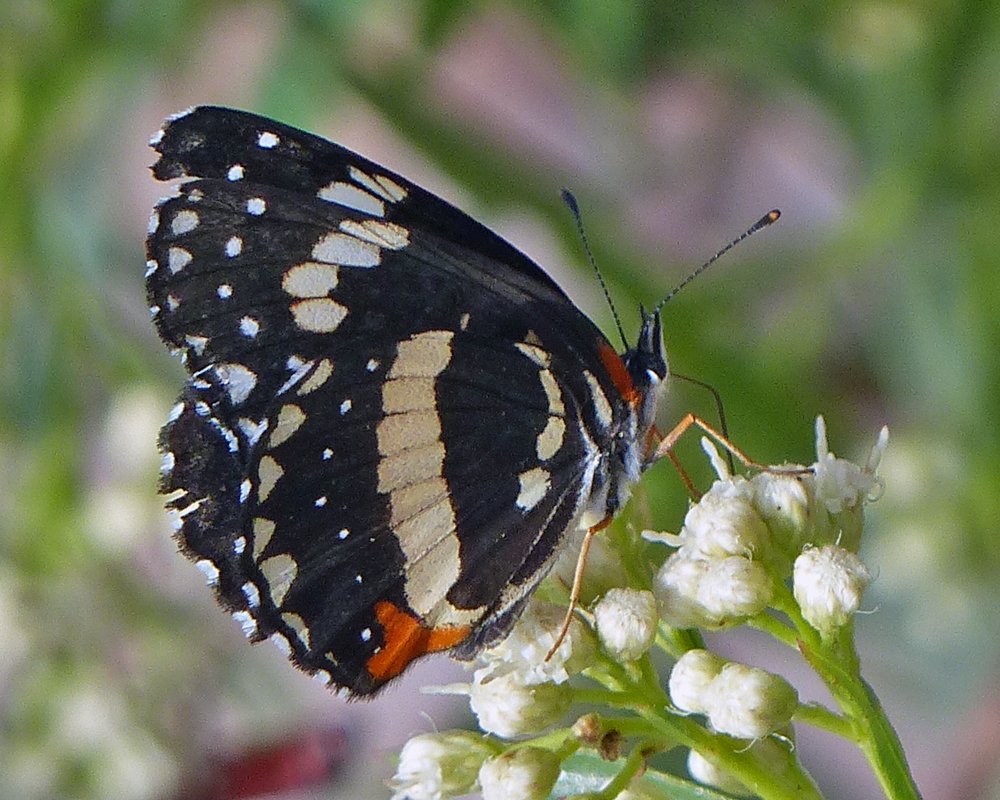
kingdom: Animalia
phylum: Arthropoda
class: Insecta
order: Lepidoptera
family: Nymphalidae
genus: Chlosyne
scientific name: Chlosyne lacinia
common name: Bordered Patch
